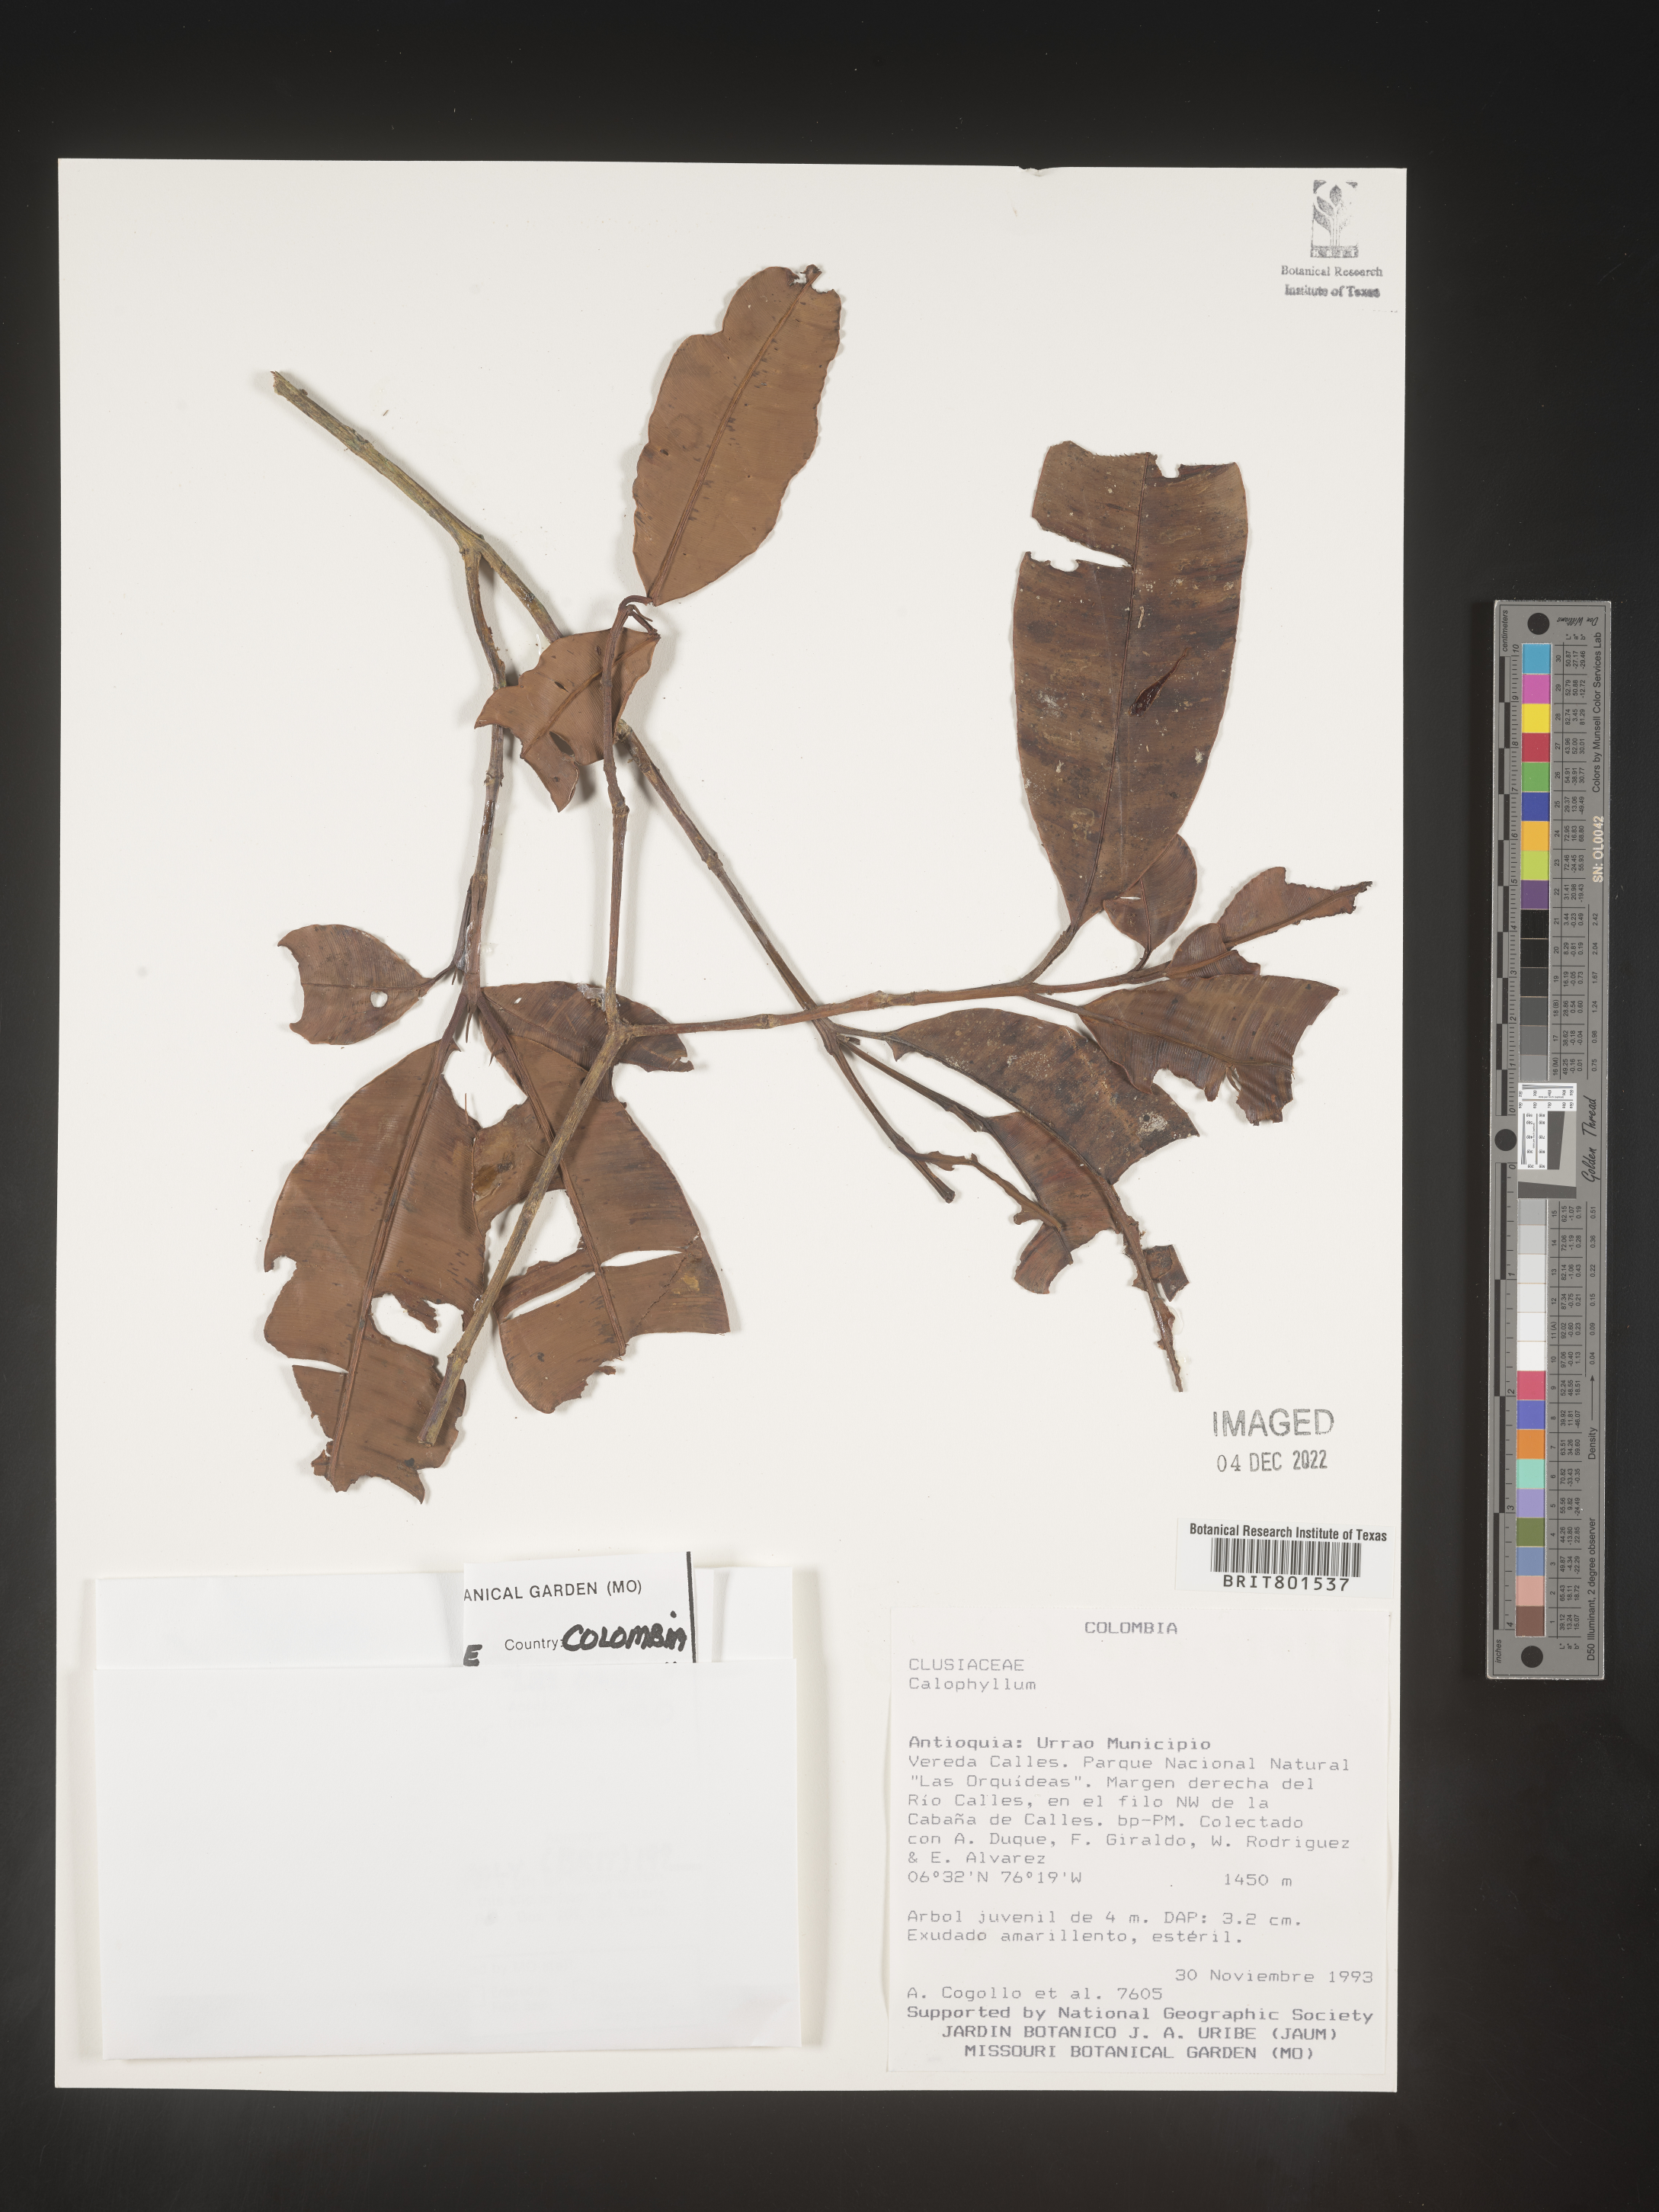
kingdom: Plantae
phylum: Tracheophyta
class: Magnoliopsida
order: Malpighiales
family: Calophyllaceae
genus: Calophyllum
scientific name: Calophyllum
